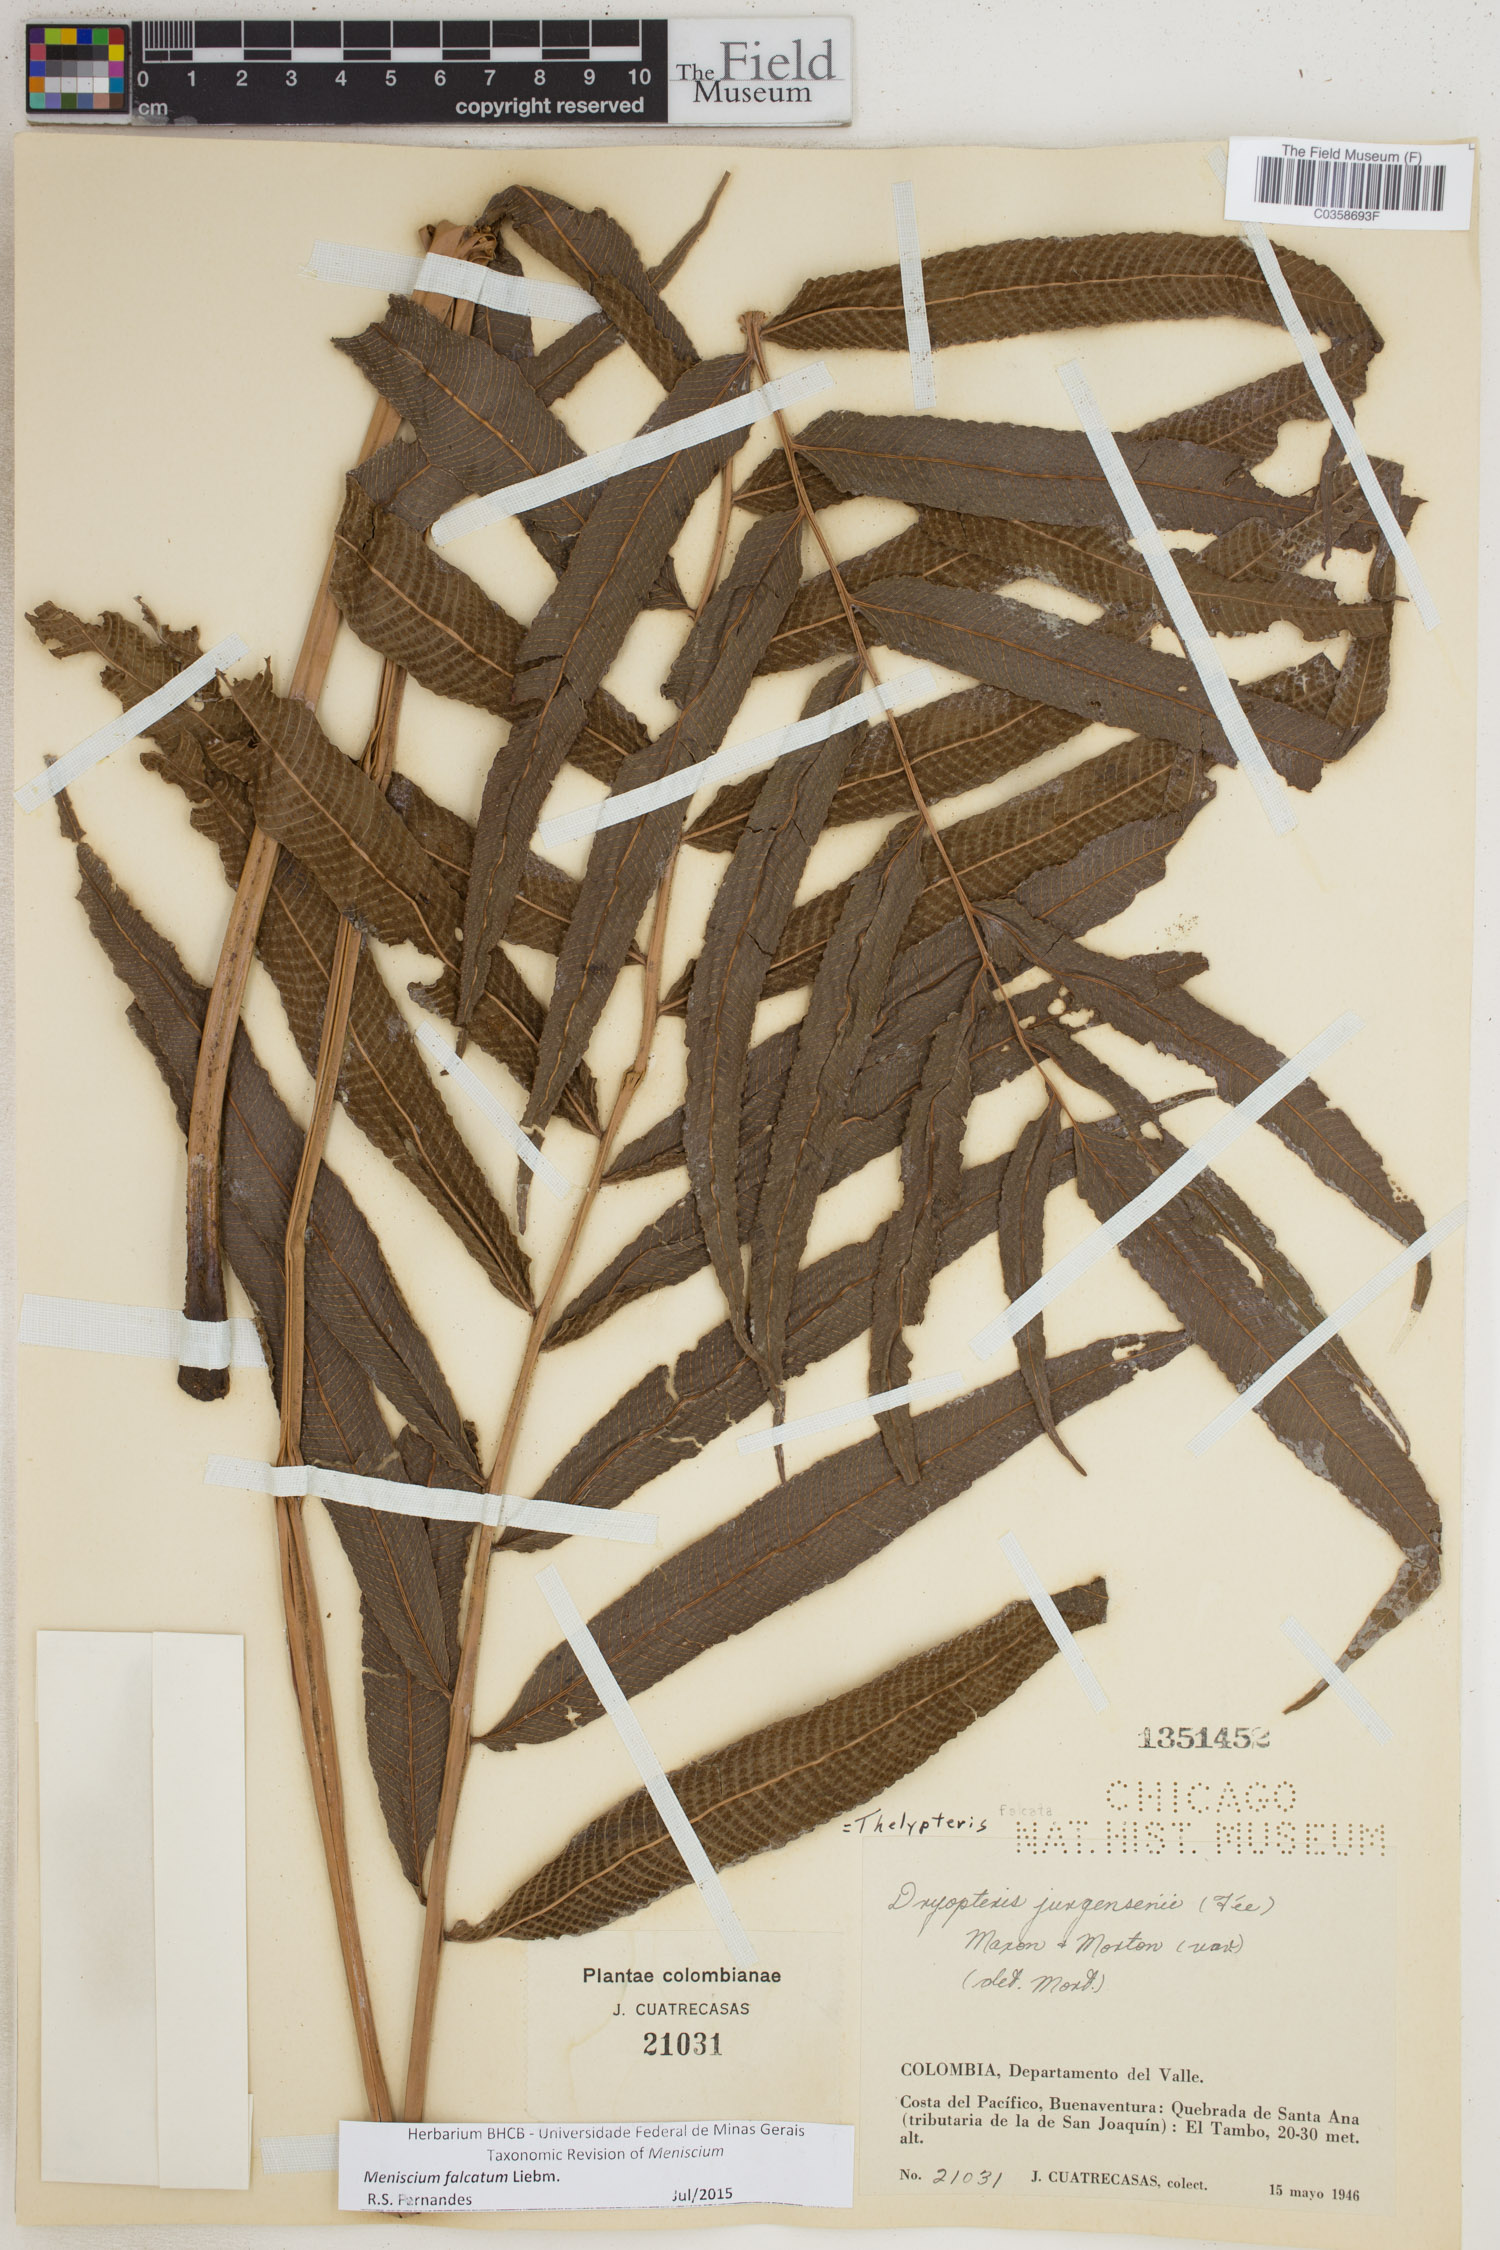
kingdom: Plantae
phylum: Tracheophyta
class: Polypodiopsida
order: Polypodiales
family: Thelypteridaceae
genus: Meniscium
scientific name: Meniscium falcatum
